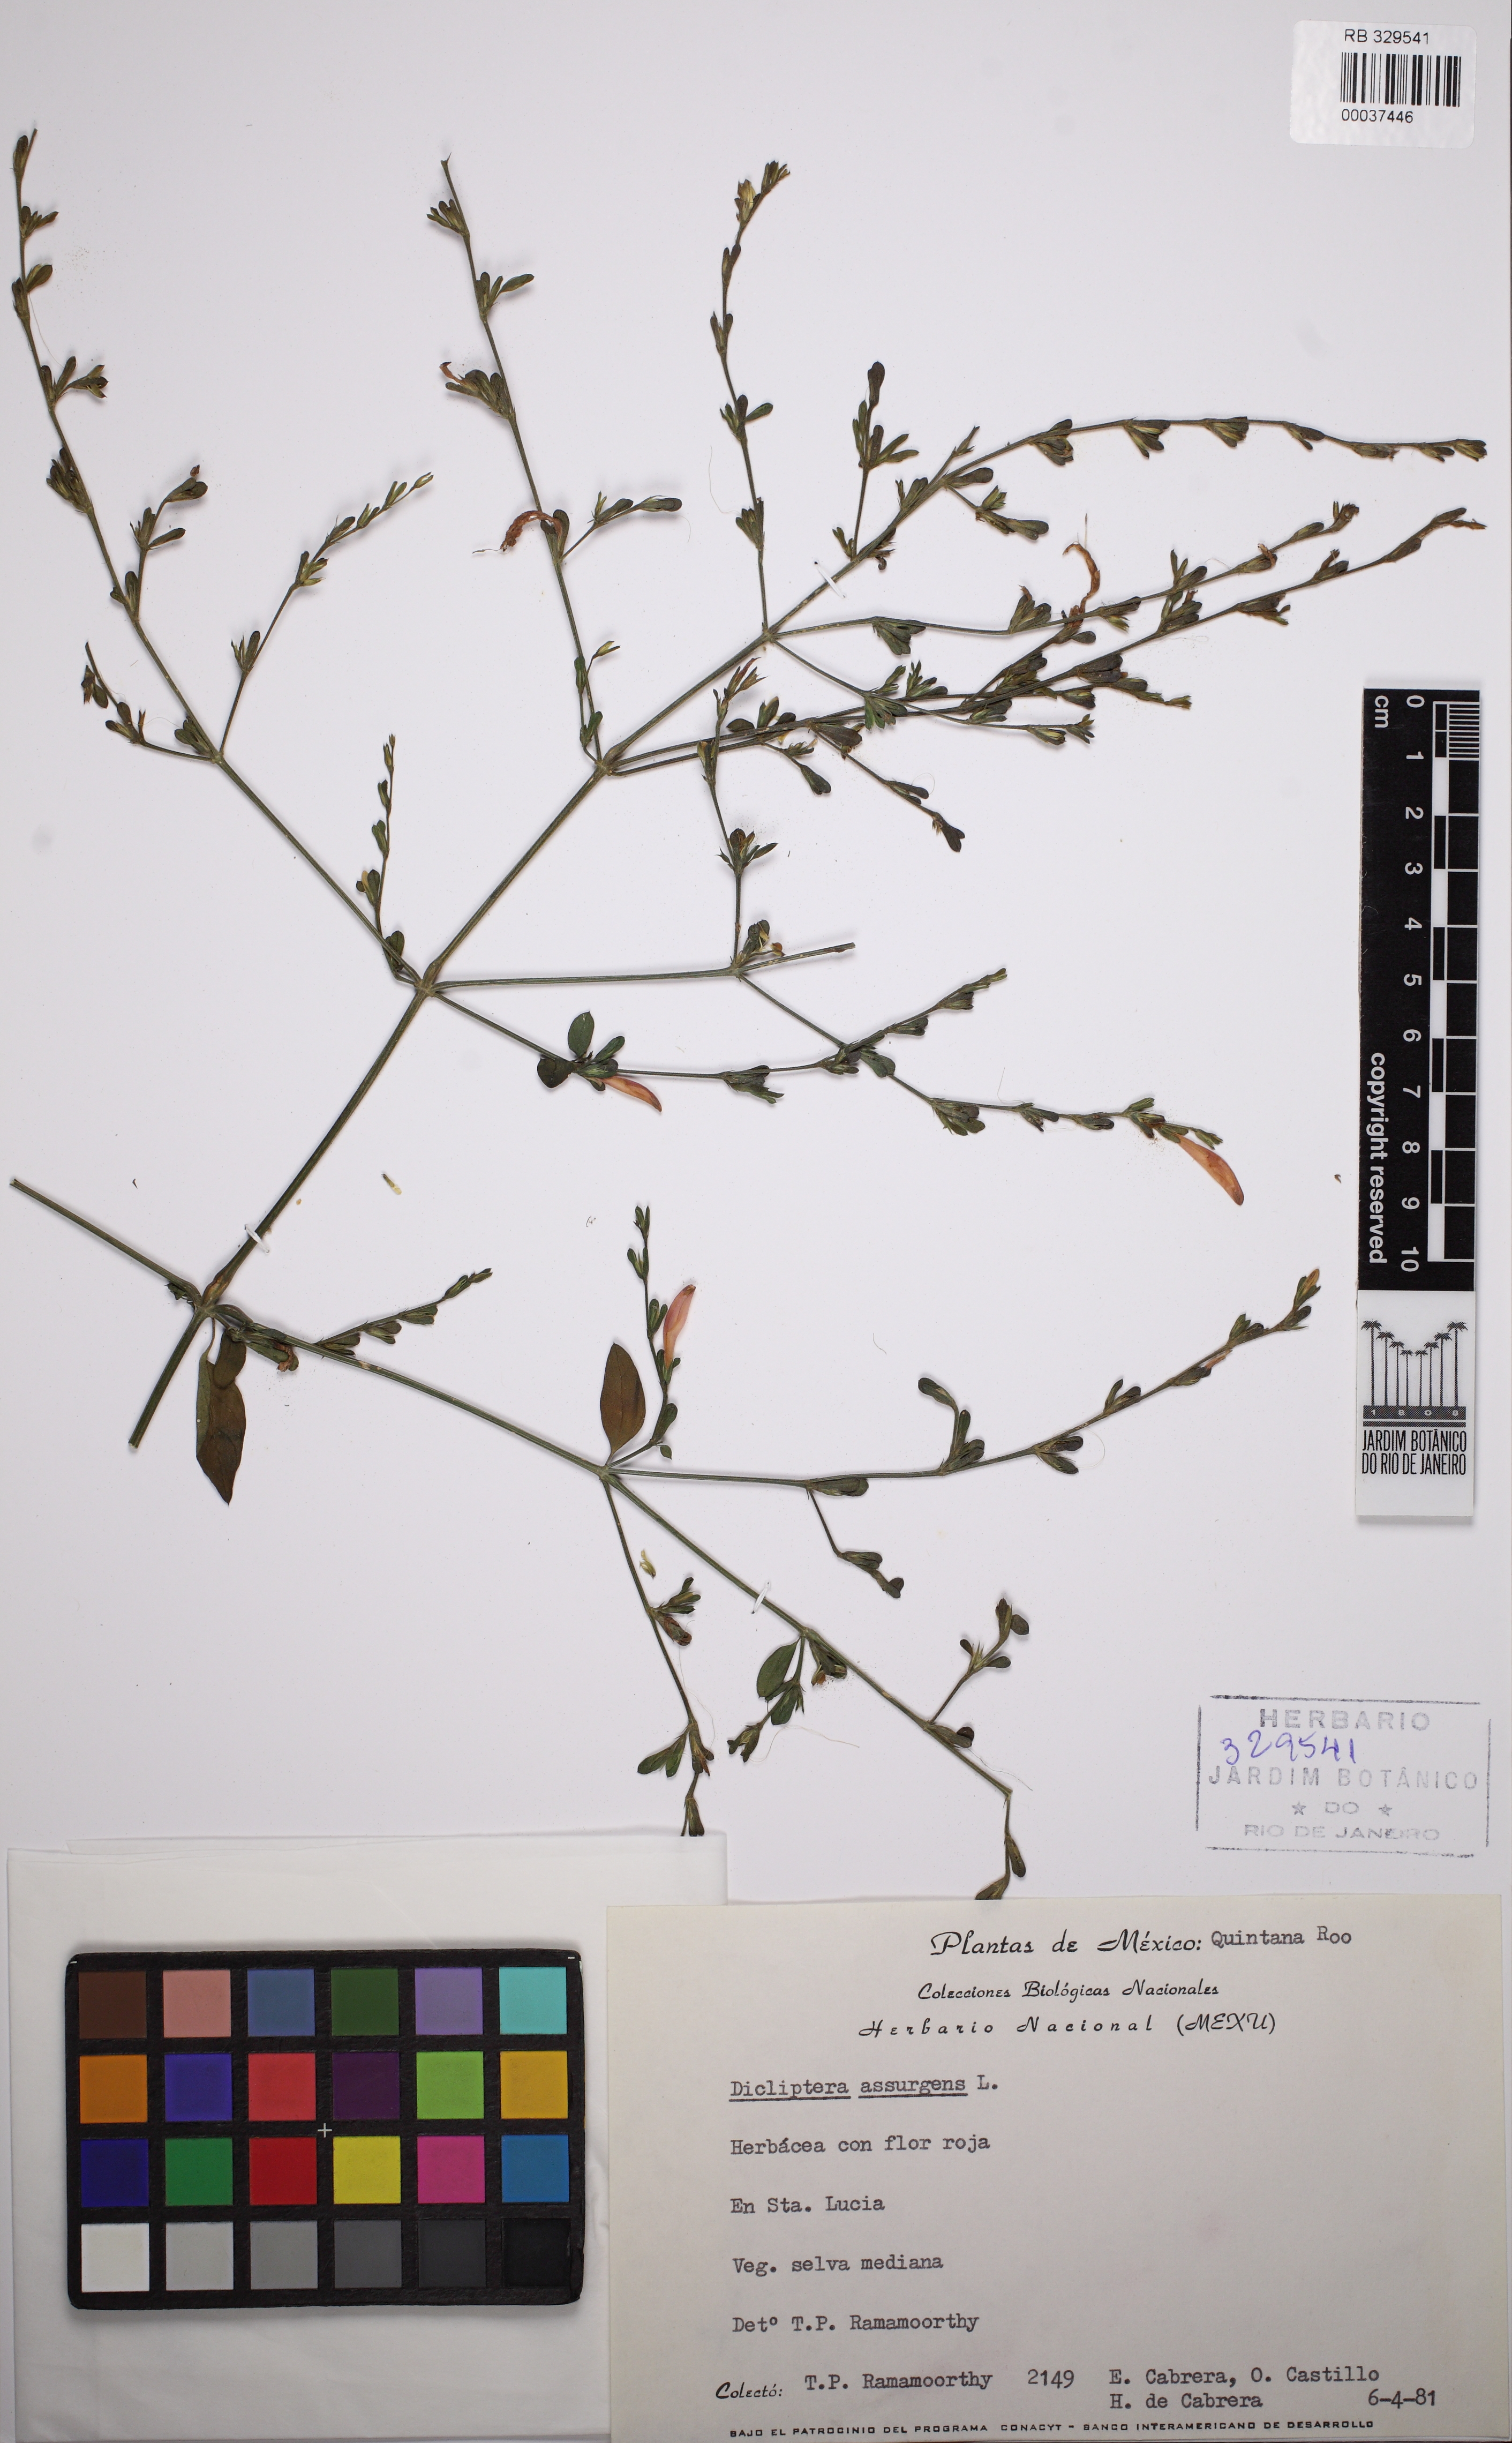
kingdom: Plantae
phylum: Tracheophyta
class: Magnoliopsida
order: Lamiales
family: Acanthaceae
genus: Dicliptera
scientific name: Dicliptera sexangularis
